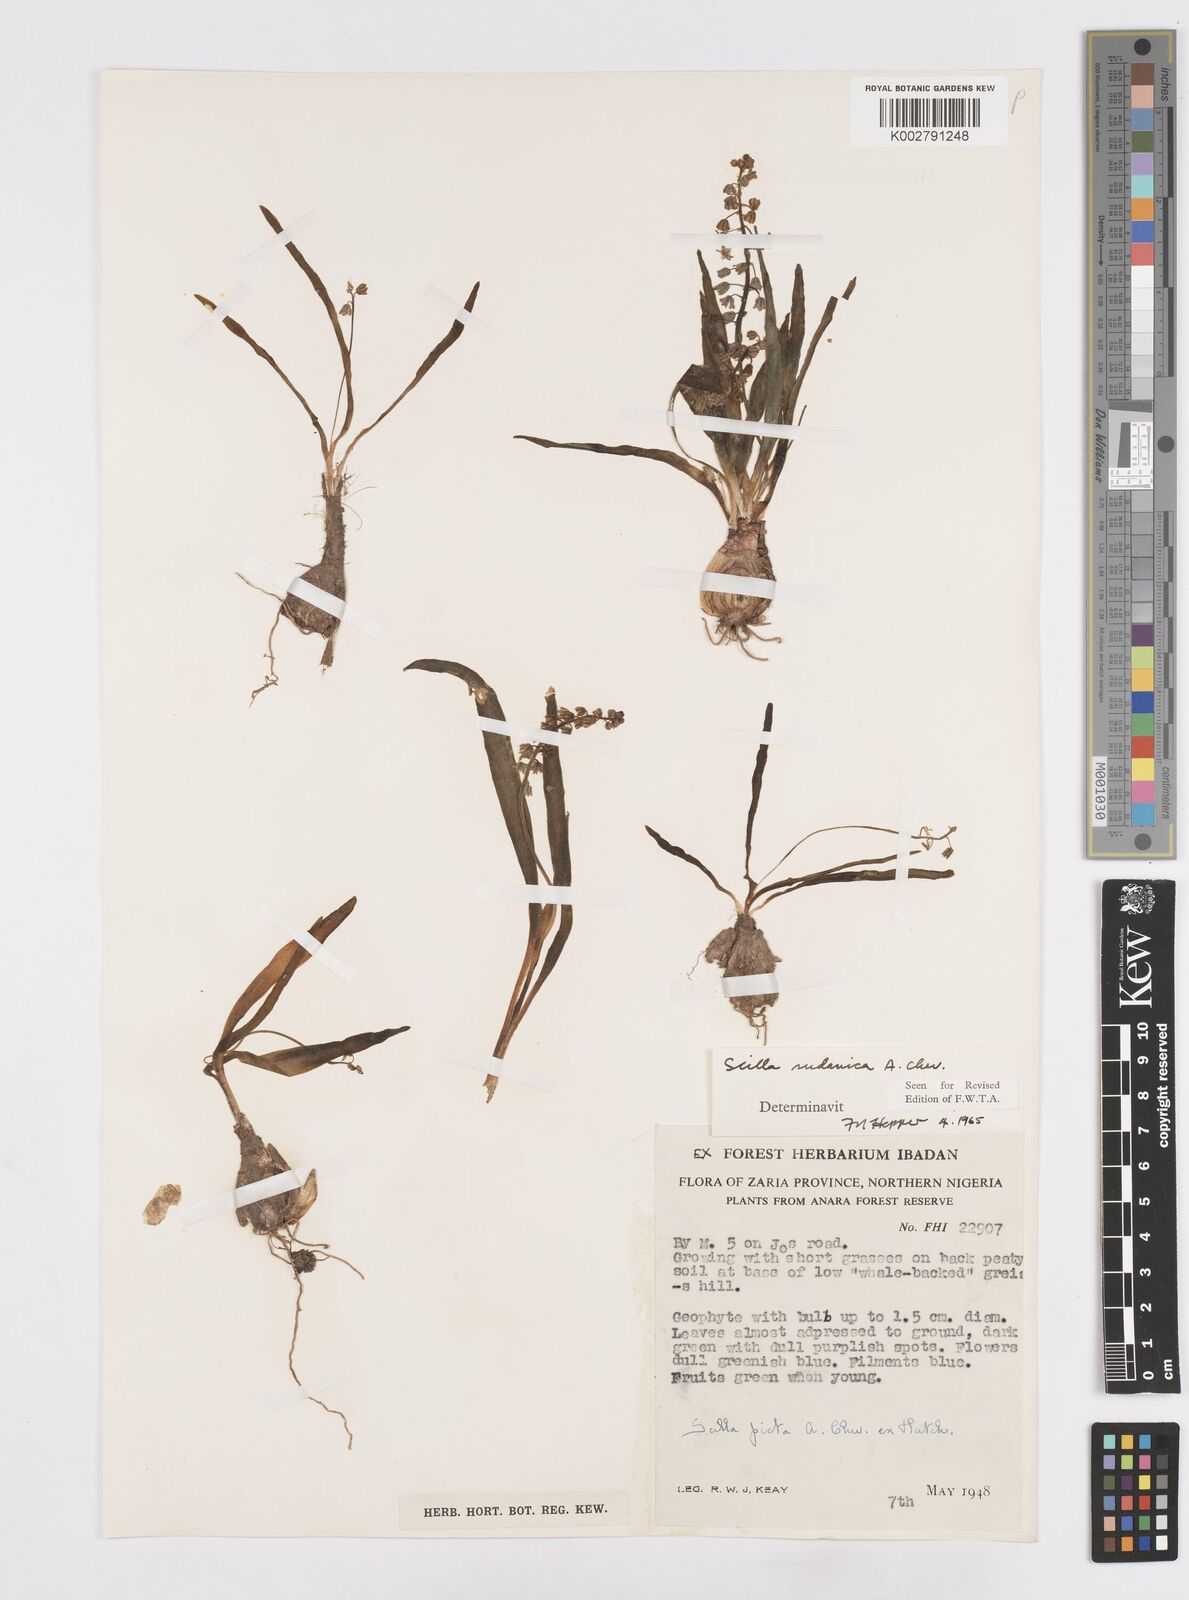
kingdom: Plantae
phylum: Tracheophyta
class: Liliopsida
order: Asparagales
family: Asparagaceae
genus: Ledebouria
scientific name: Ledebouria sudanica
